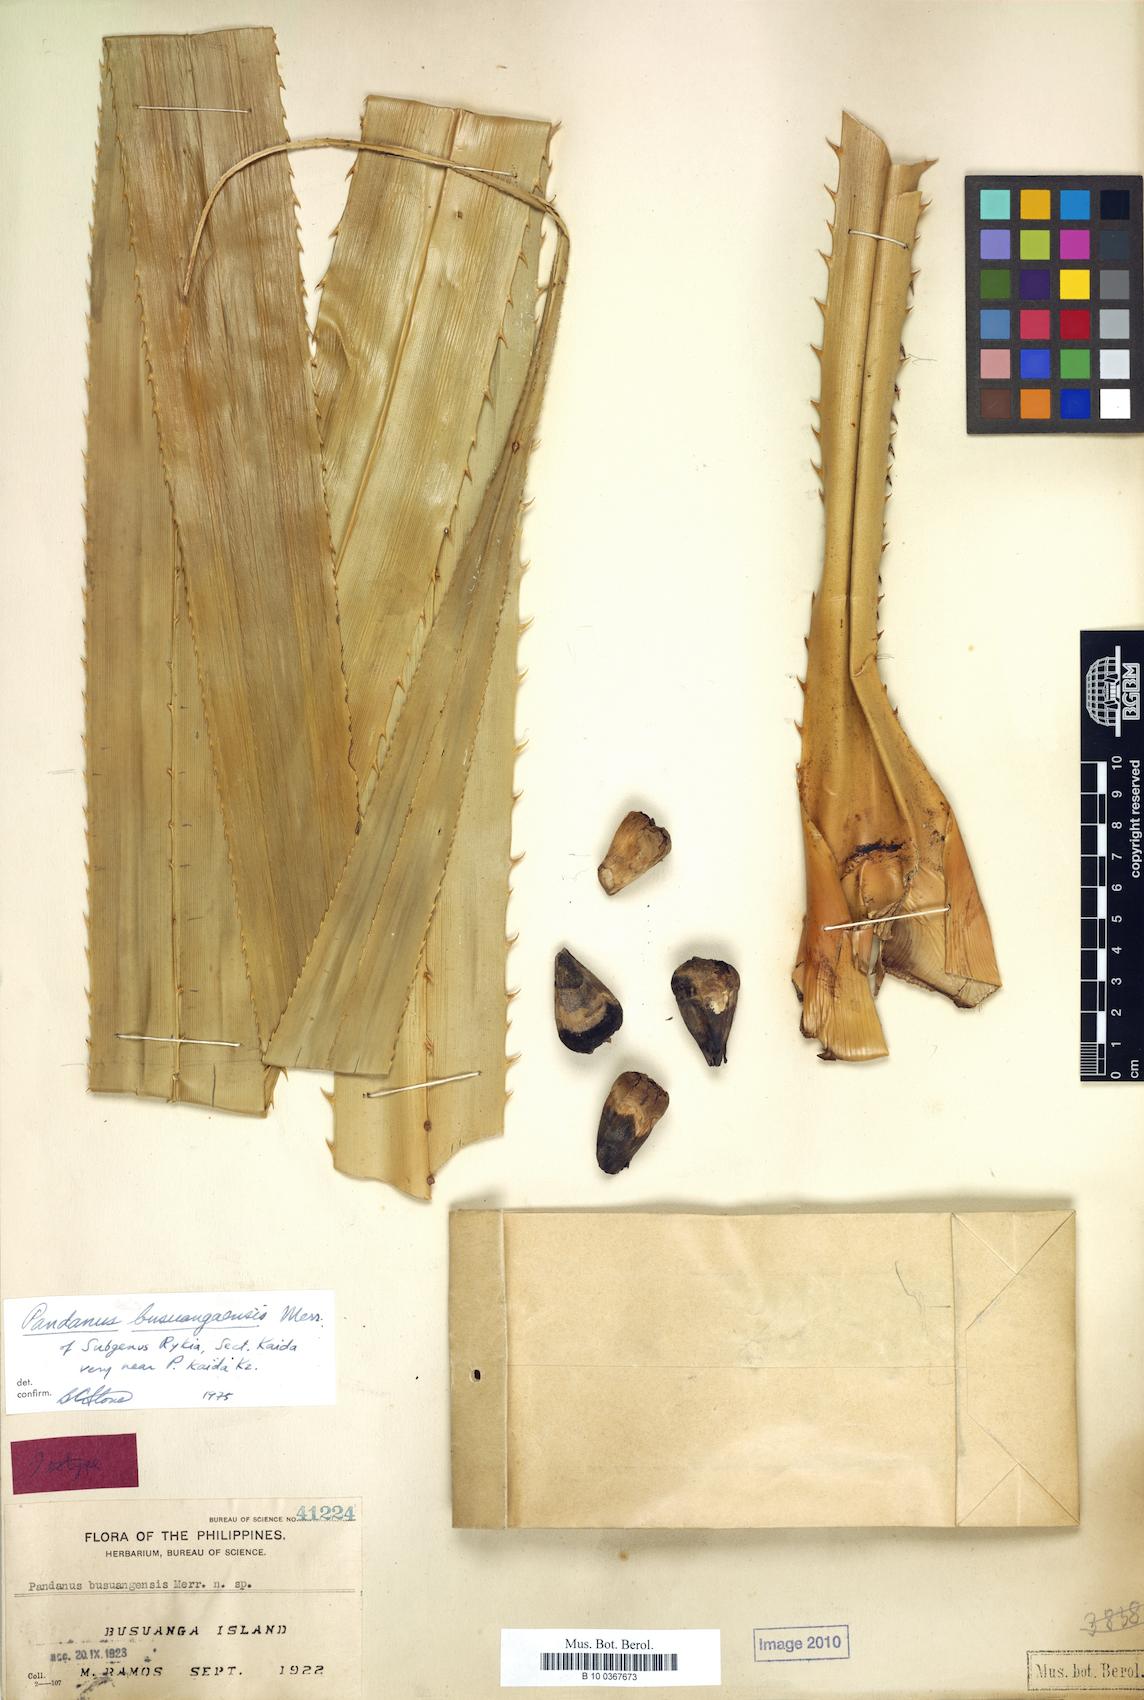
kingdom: Plantae
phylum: Tracheophyta
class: Liliopsida
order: Pandanales
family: Pandanaceae
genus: Pandanus
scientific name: Pandanus busuangaensis
